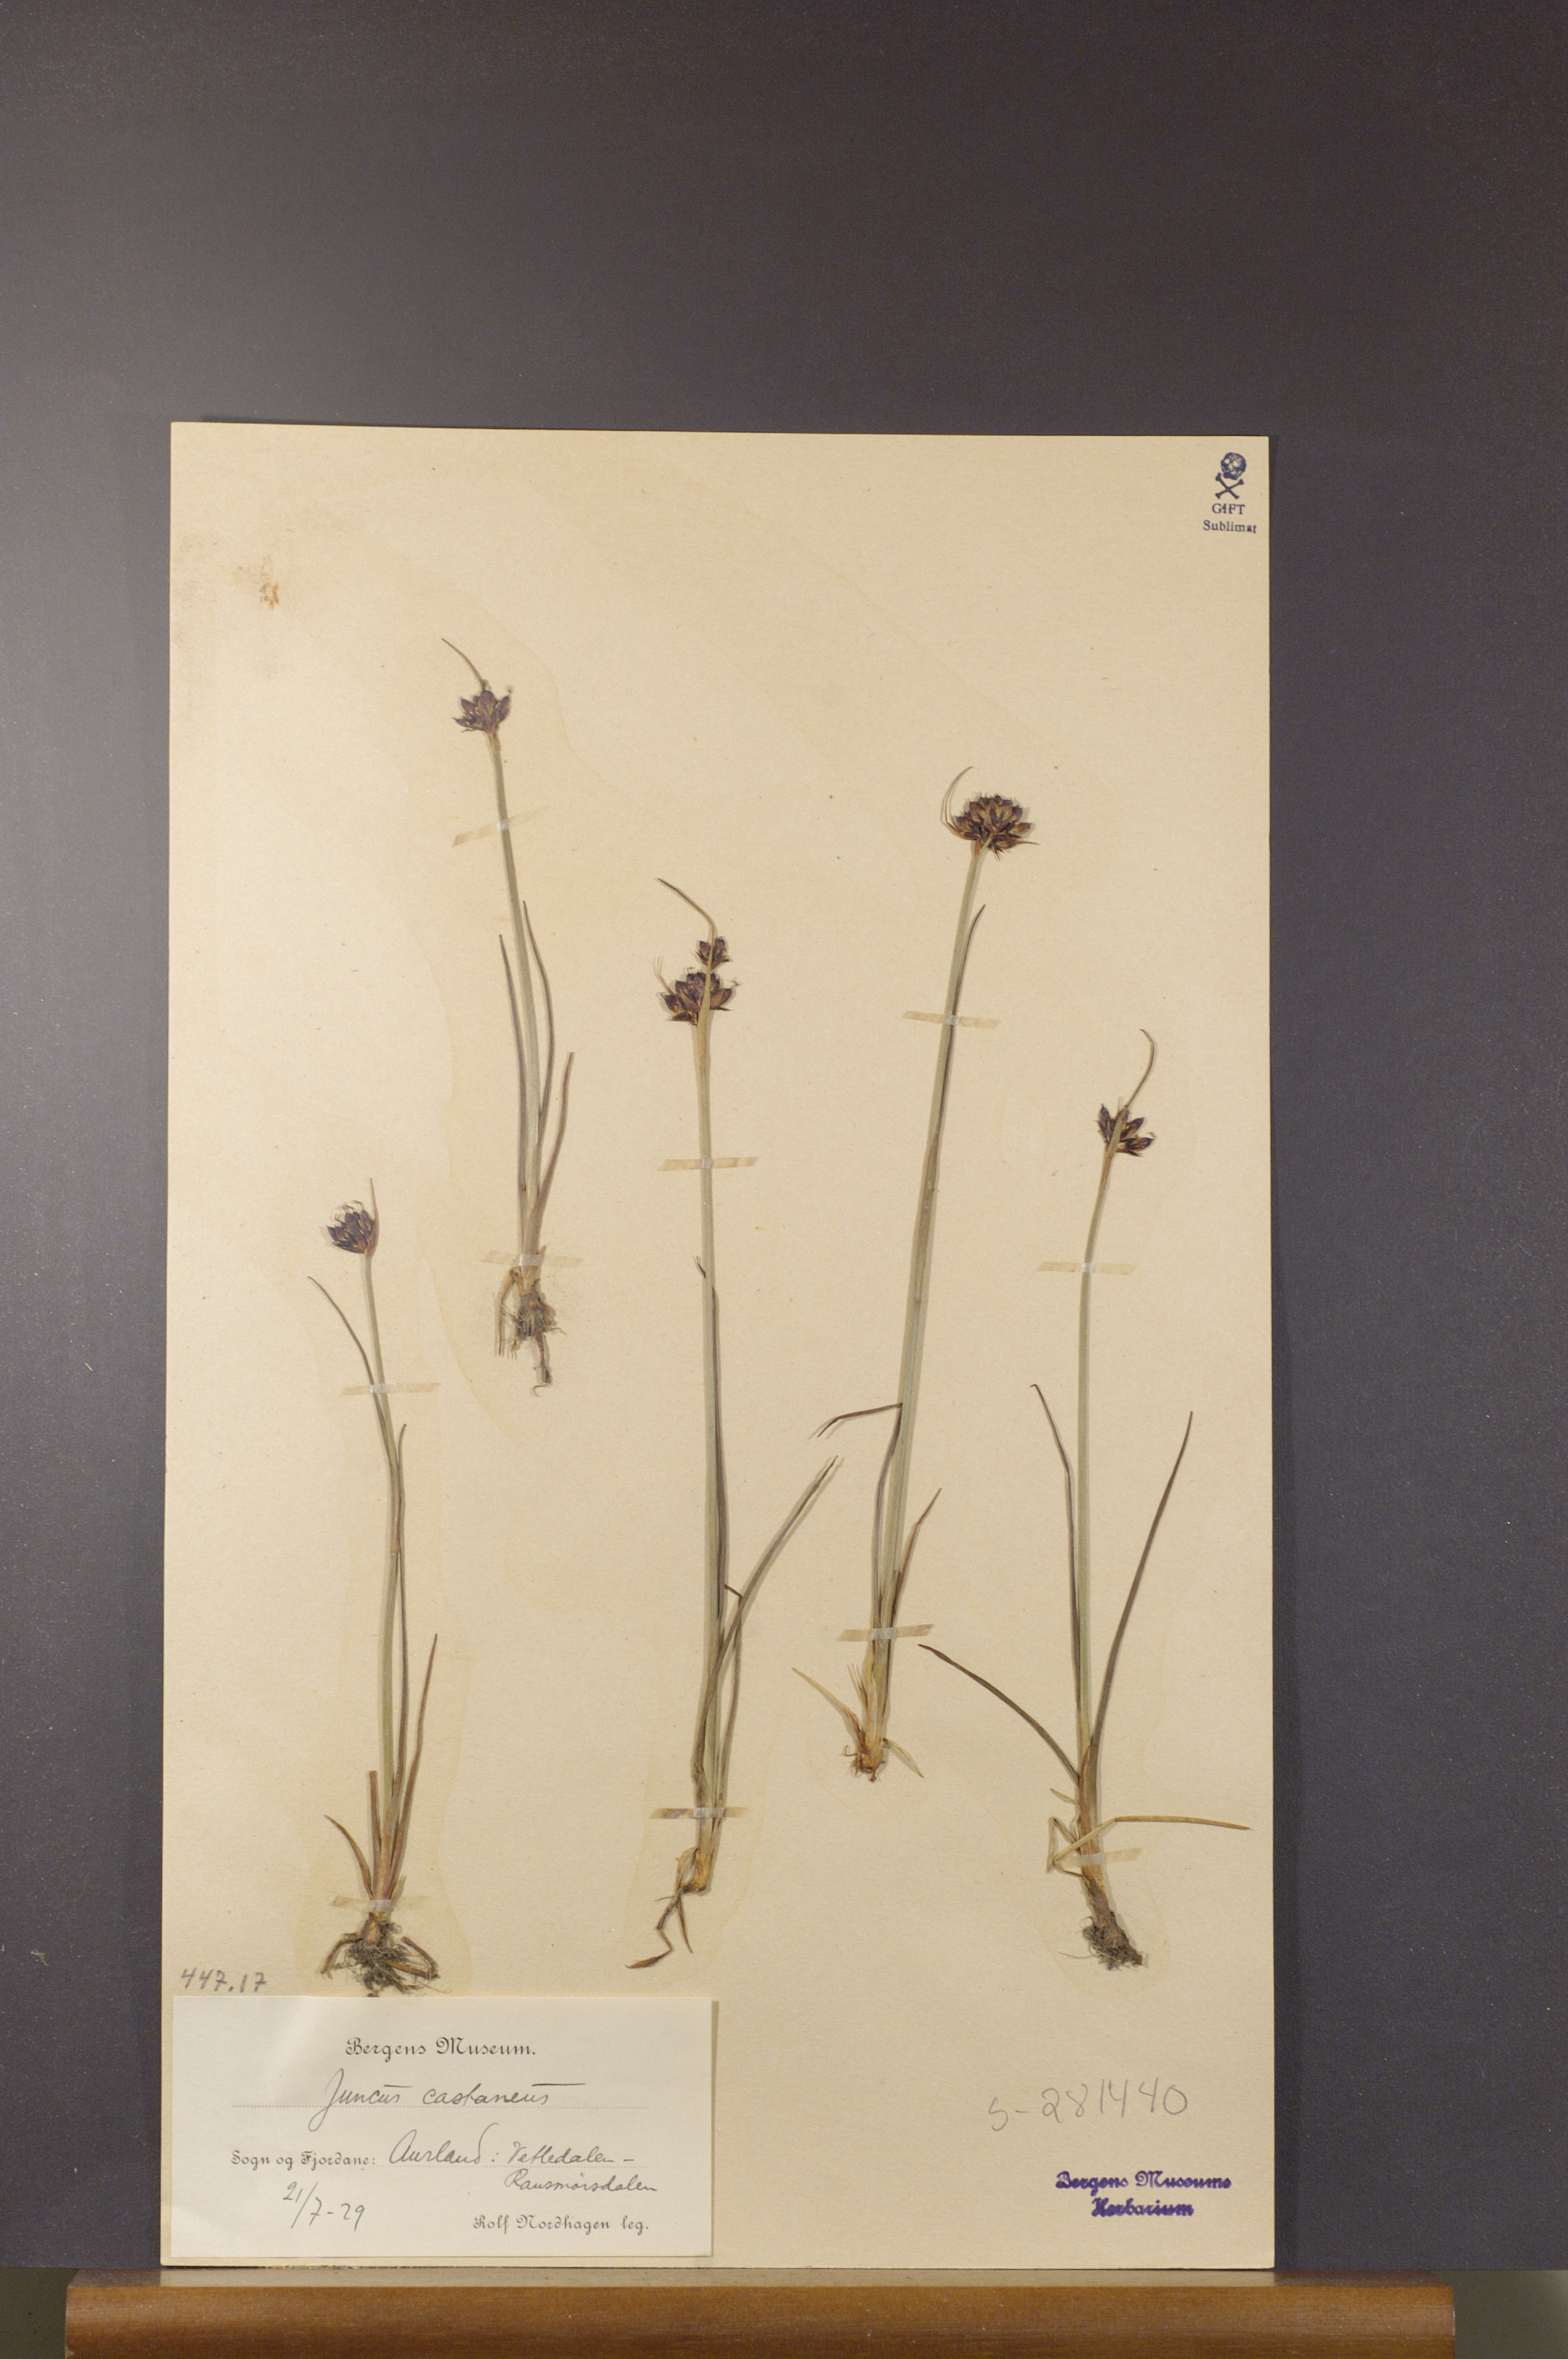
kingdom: Plantae
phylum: Tracheophyta
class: Liliopsida
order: Poales
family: Juncaceae
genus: Juncus
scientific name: Juncus castaneus
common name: Chestnut rush
